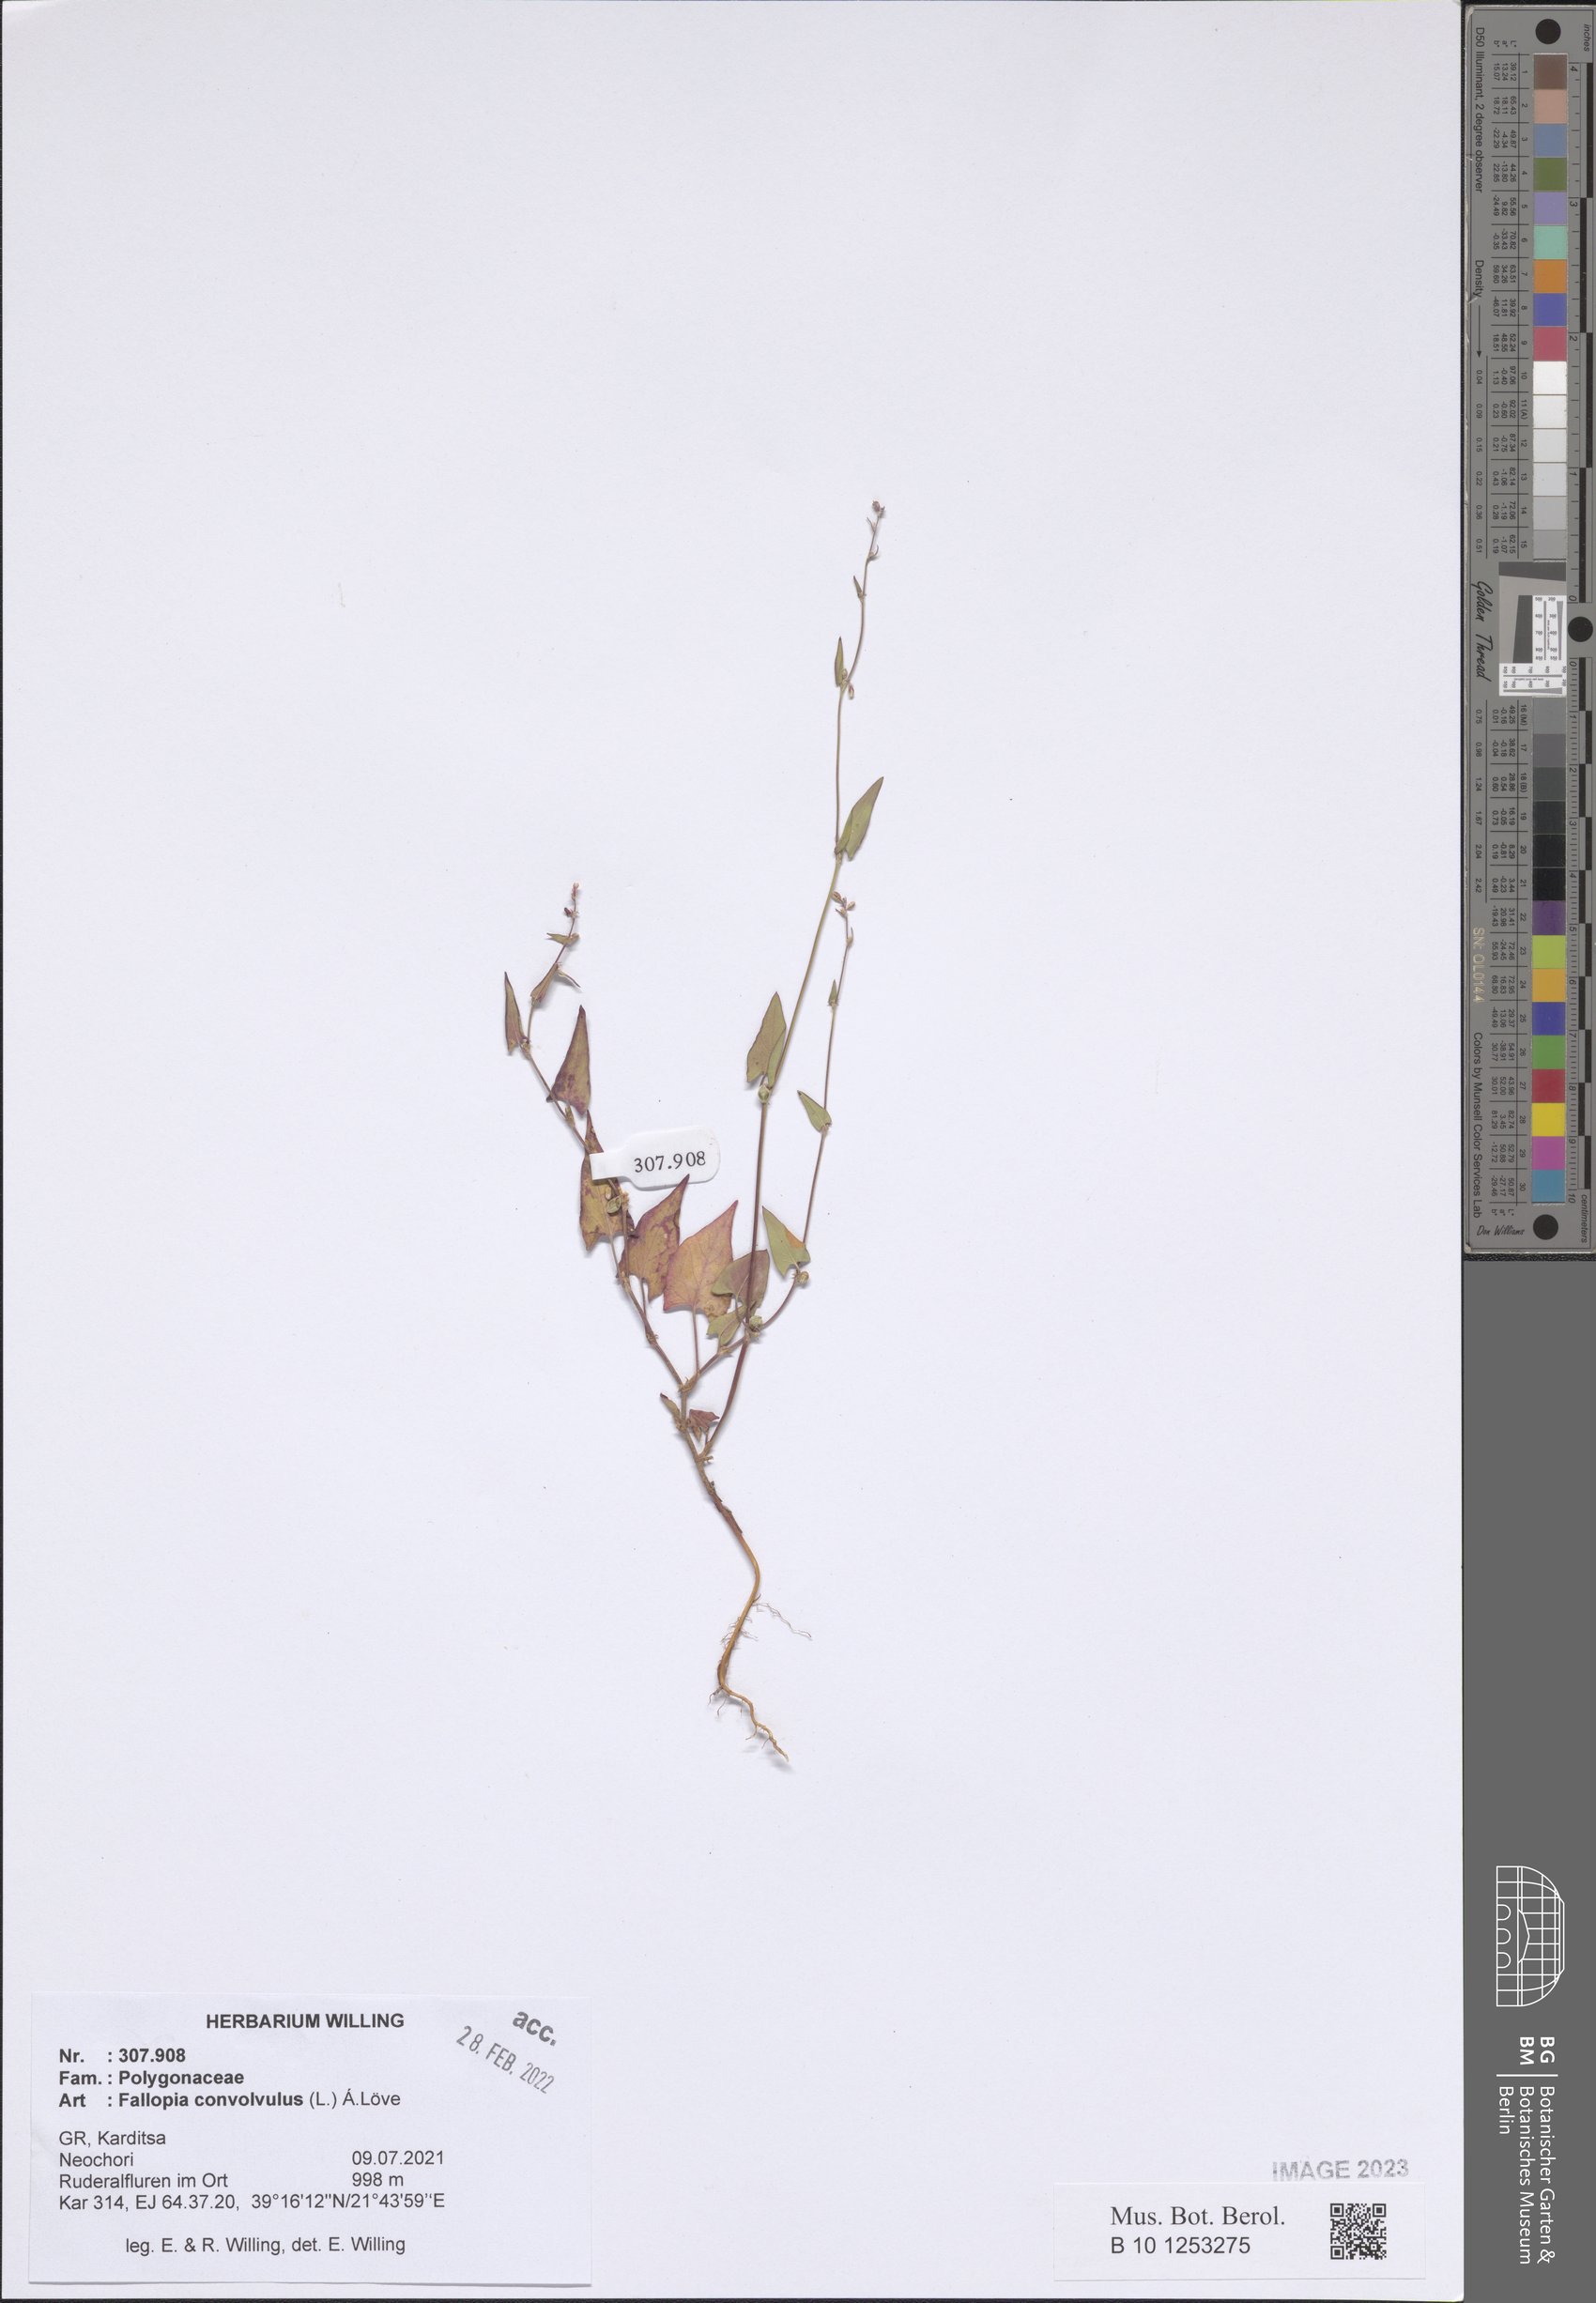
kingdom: Plantae
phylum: Tracheophyta
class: Magnoliopsida
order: Caryophyllales
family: Polygonaceae
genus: Fallopia
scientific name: Fallopia convolvulus
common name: Black bindweed
